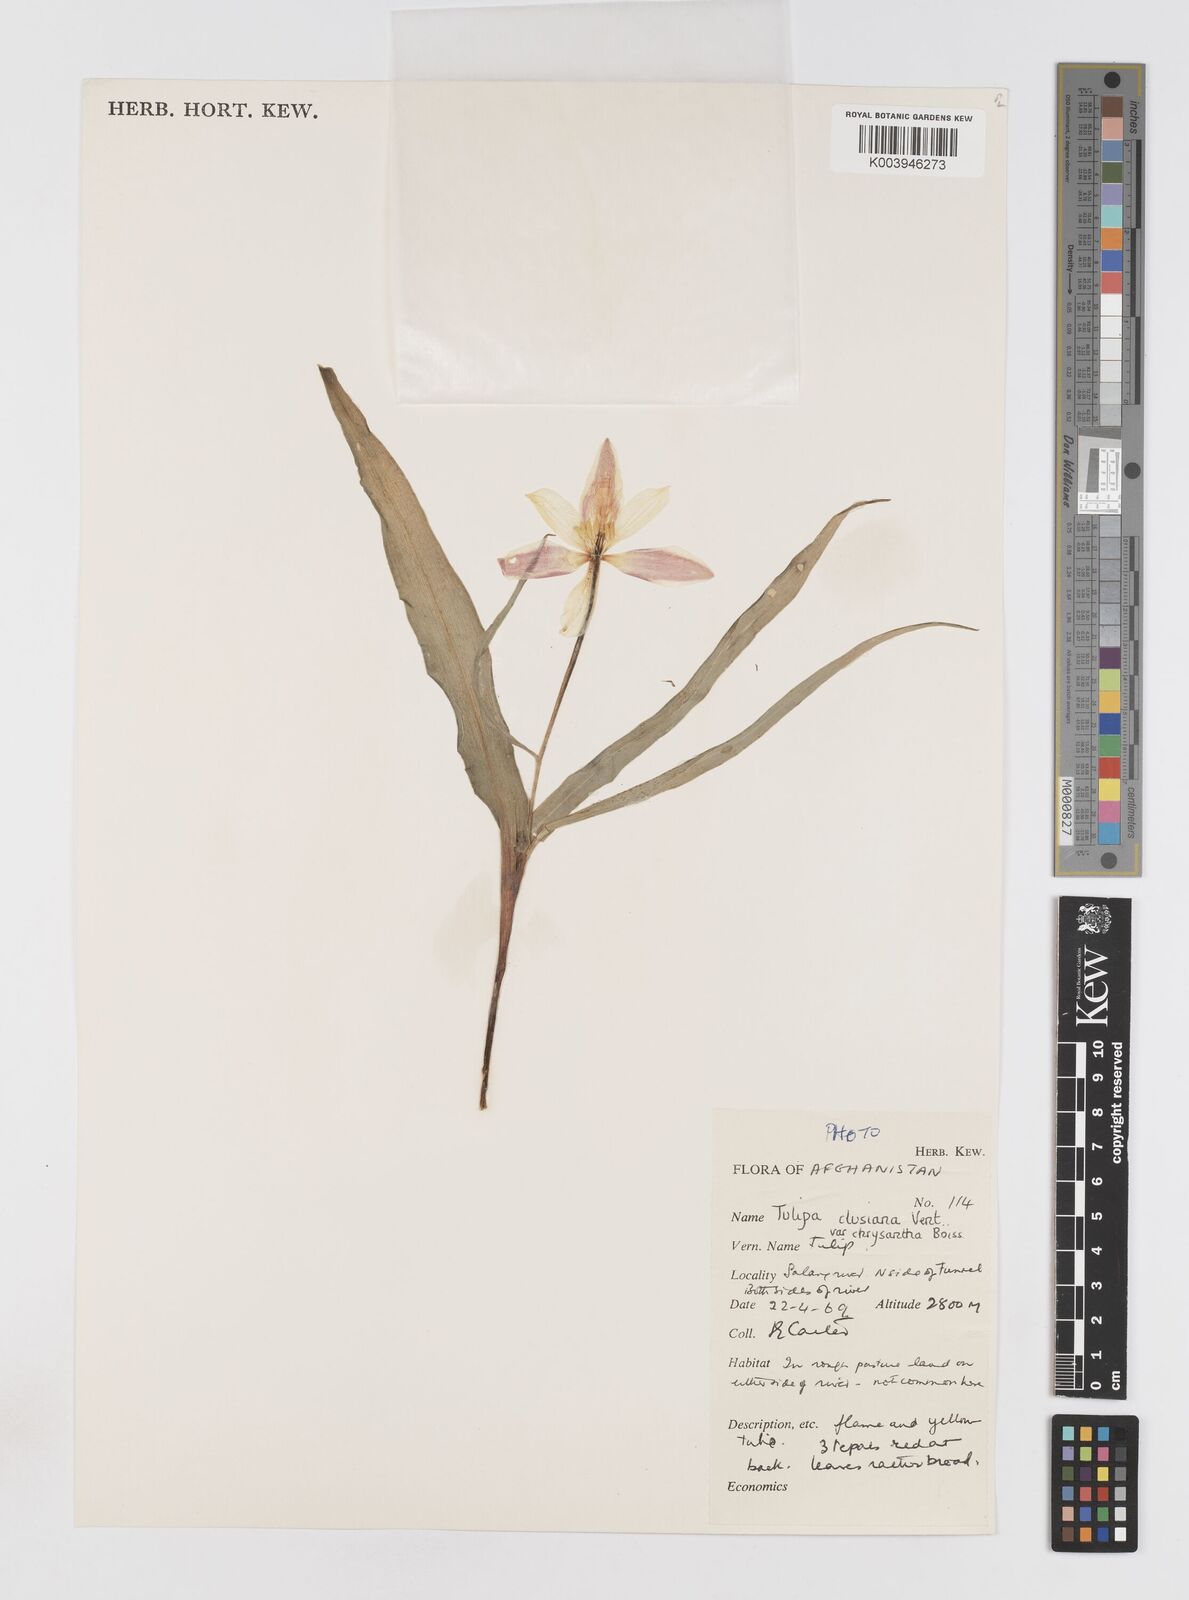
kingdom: Plantae
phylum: Tracheophyta
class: Liliopsida
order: Liliales
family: Liliaceae
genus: Tulipa
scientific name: Tulipa clusiana
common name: Lady tulip
